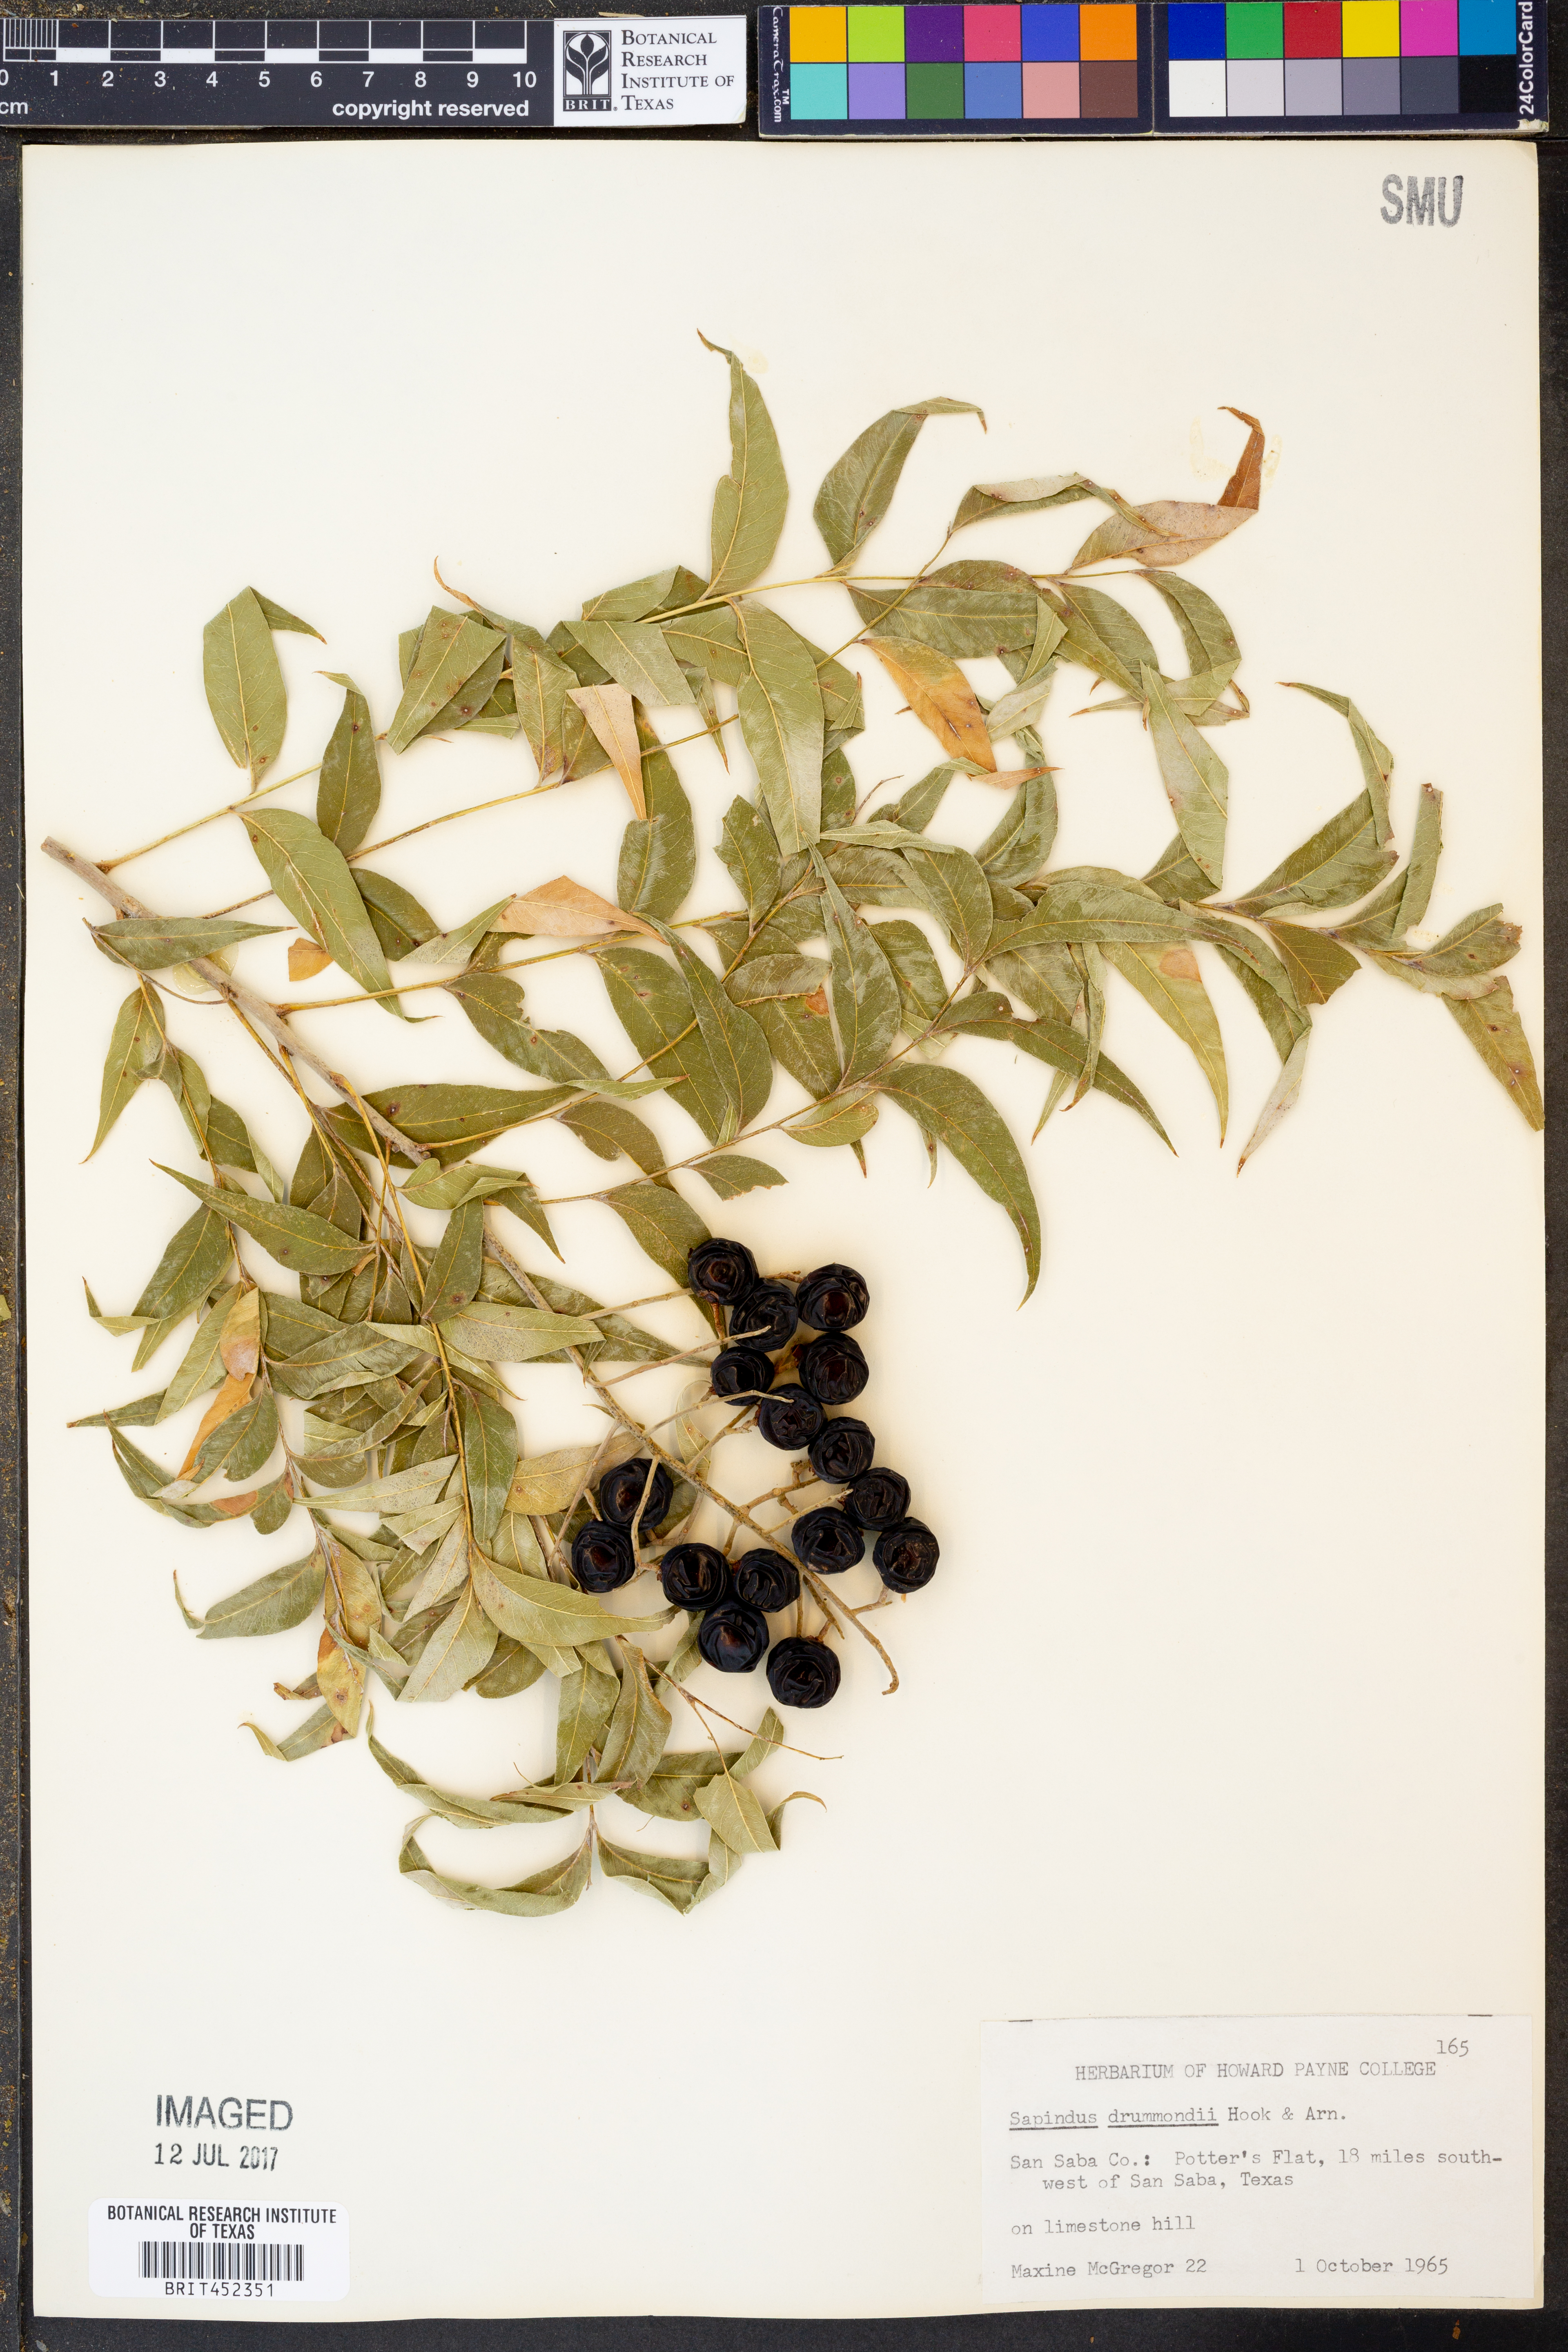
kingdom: Plantae
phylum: Tracheophyta
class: Magnoliopsida
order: Sapindales
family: Sapindaceae
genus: Sapindus
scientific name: Sapindus drummondii
